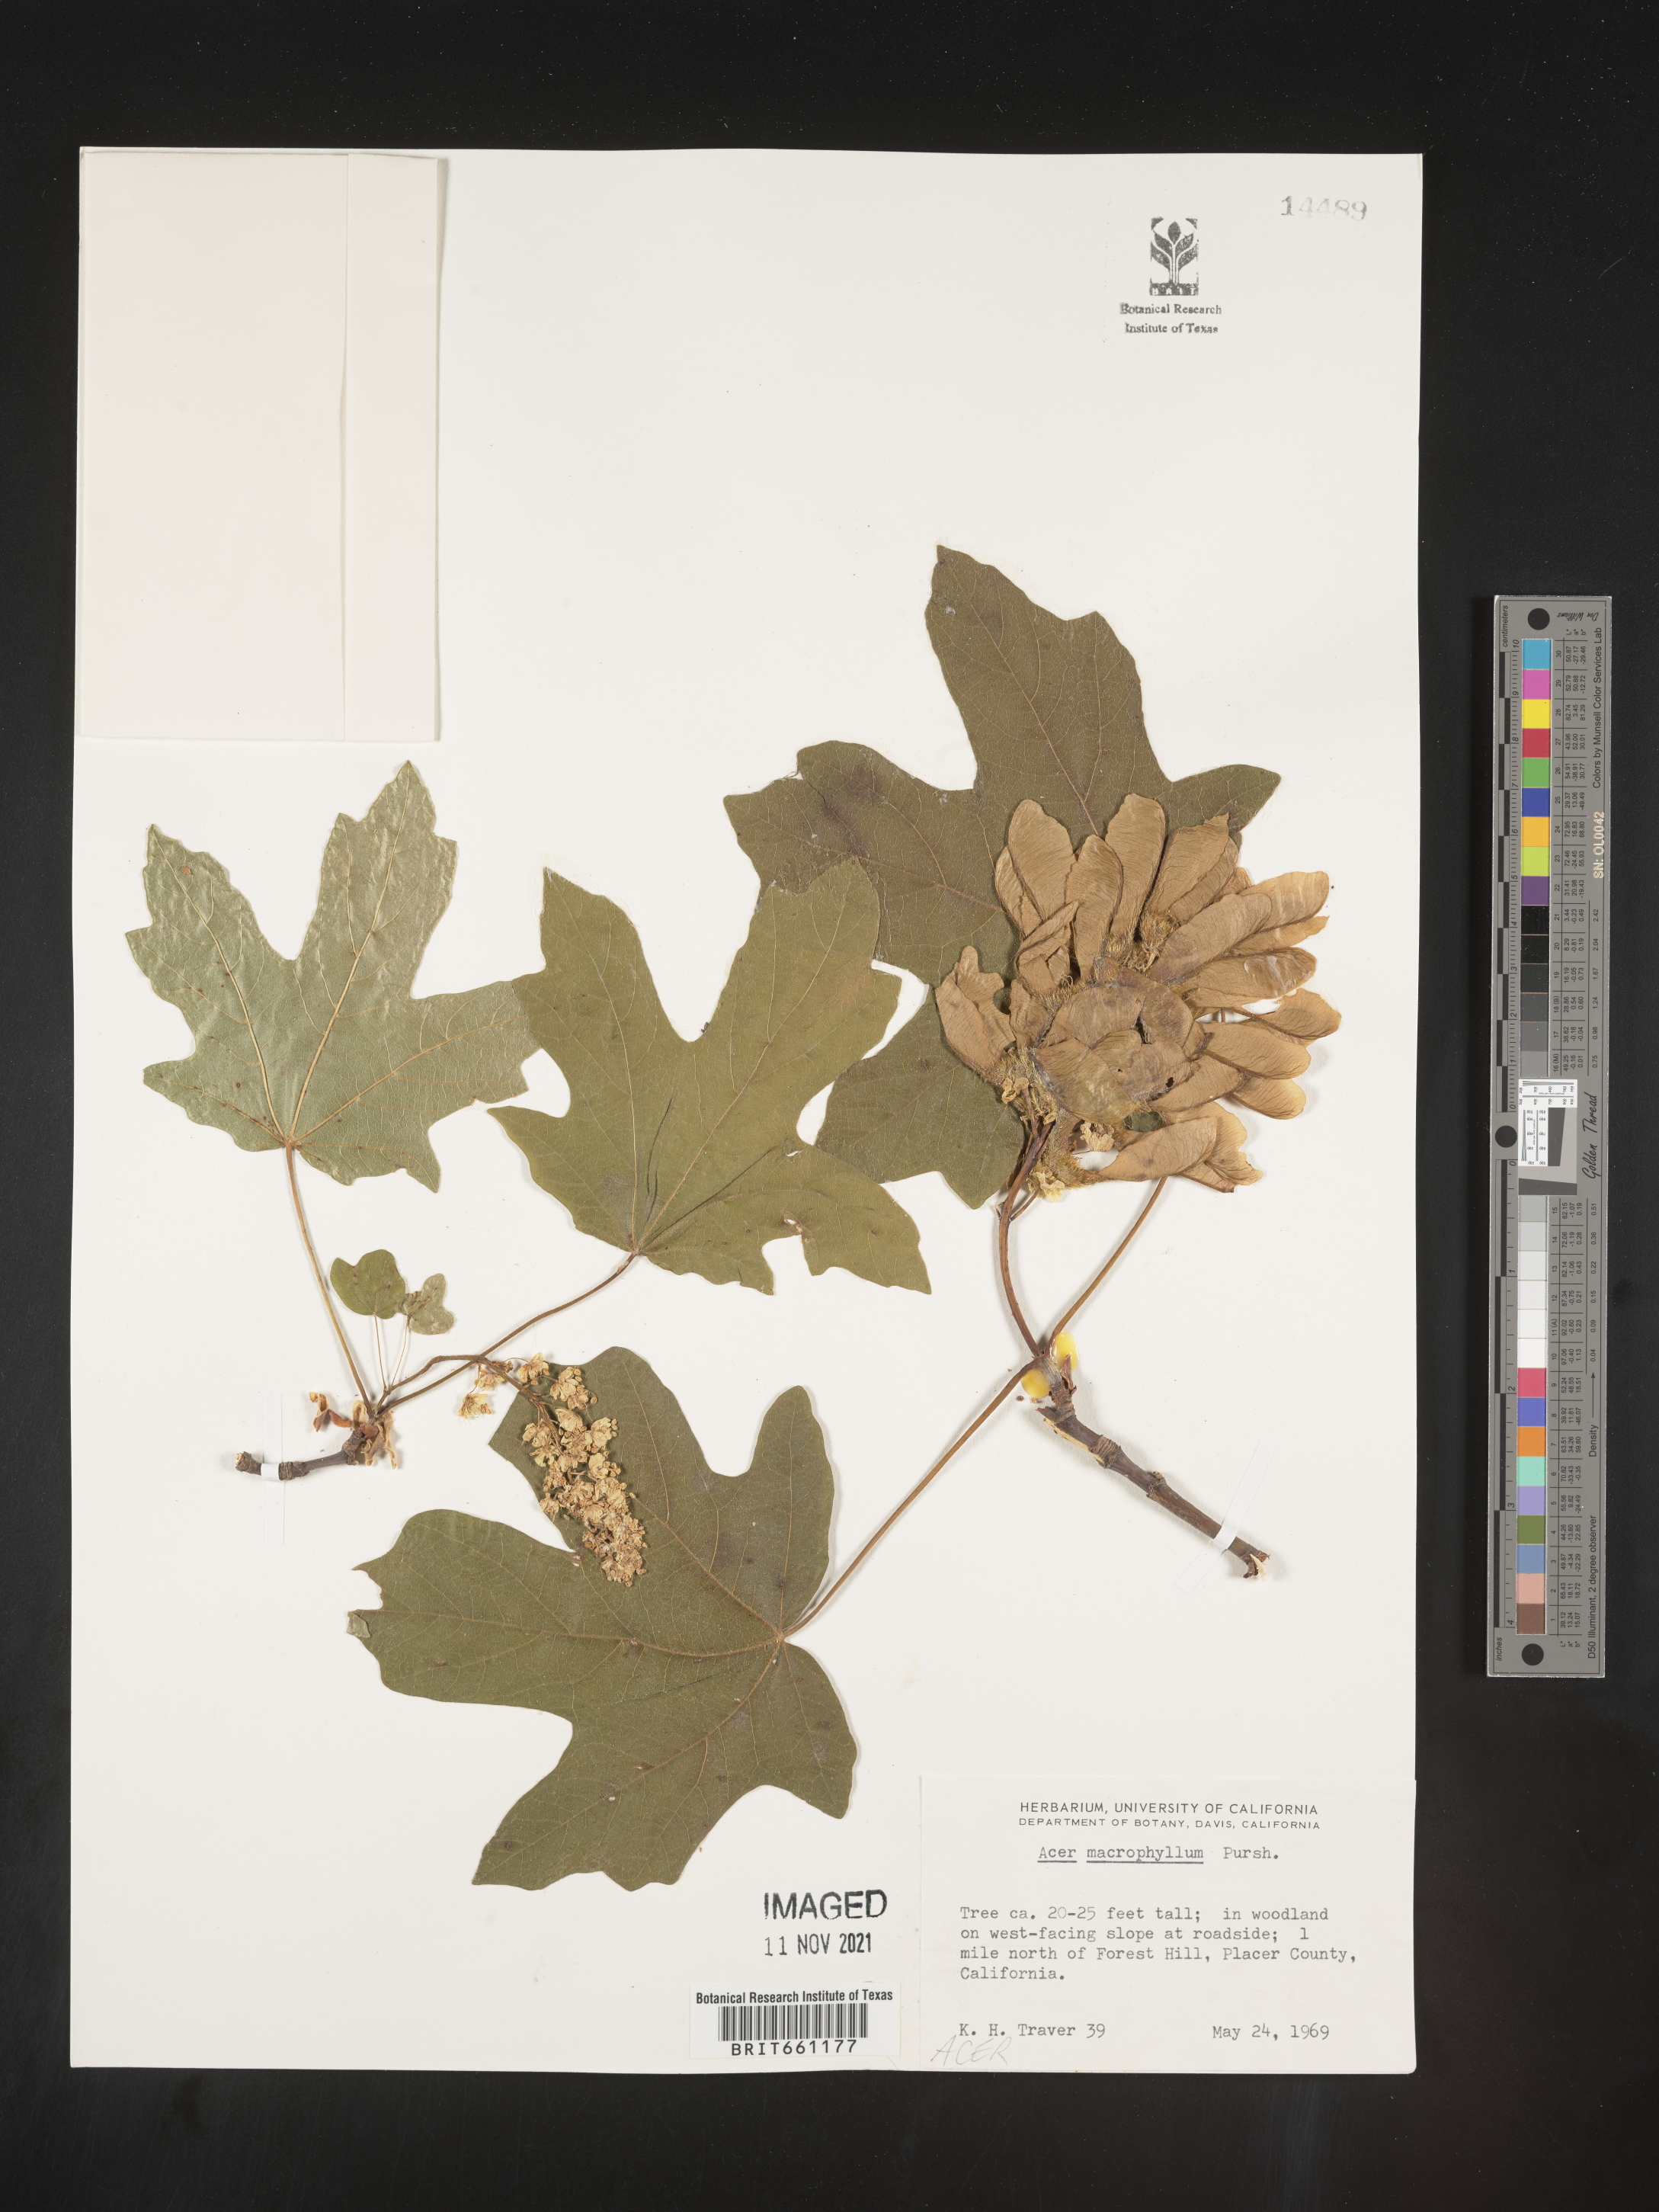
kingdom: Plantae
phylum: Tracheophyta
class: Magnoliopsida
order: Sapindales
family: Sapindaceae
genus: Acer
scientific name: Acer macrophyllum
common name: Oregon maple
